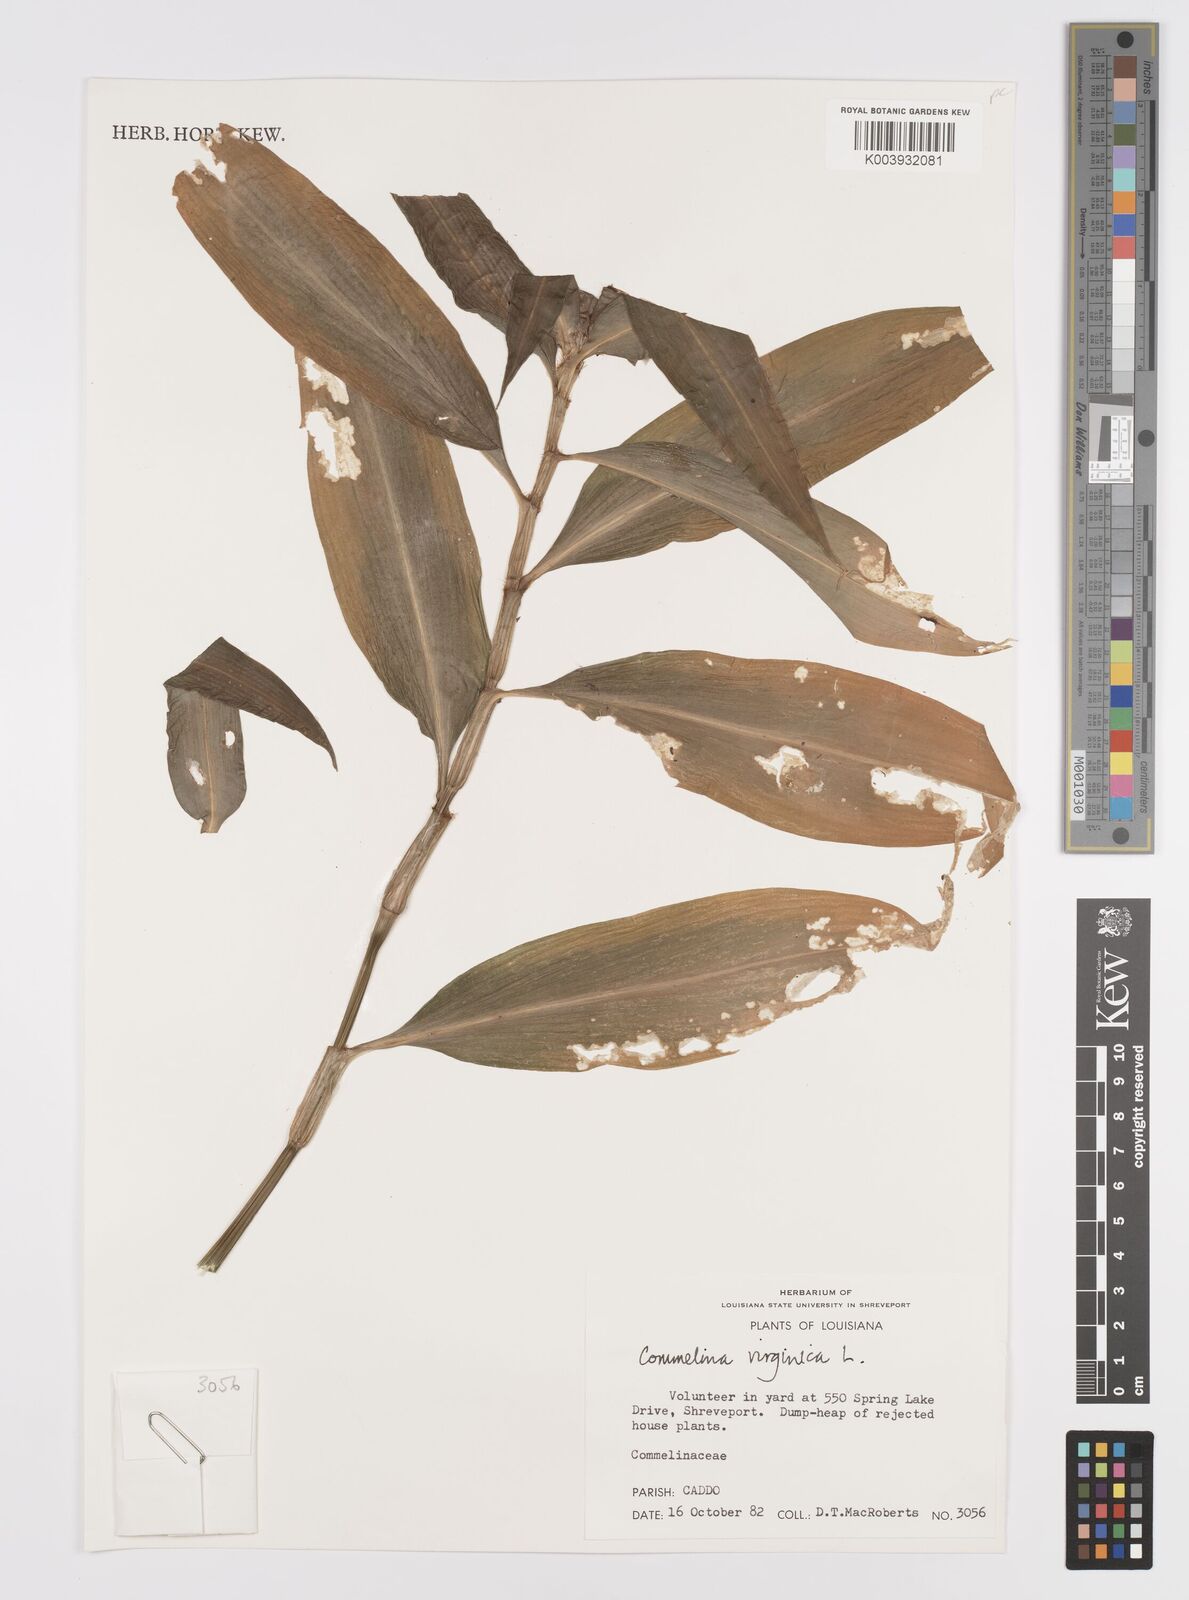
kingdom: Plantae
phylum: Tracheophyta
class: Liliopsida
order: Commelinales
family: Commelinaceae
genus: Commelina
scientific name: Commelina virginica
